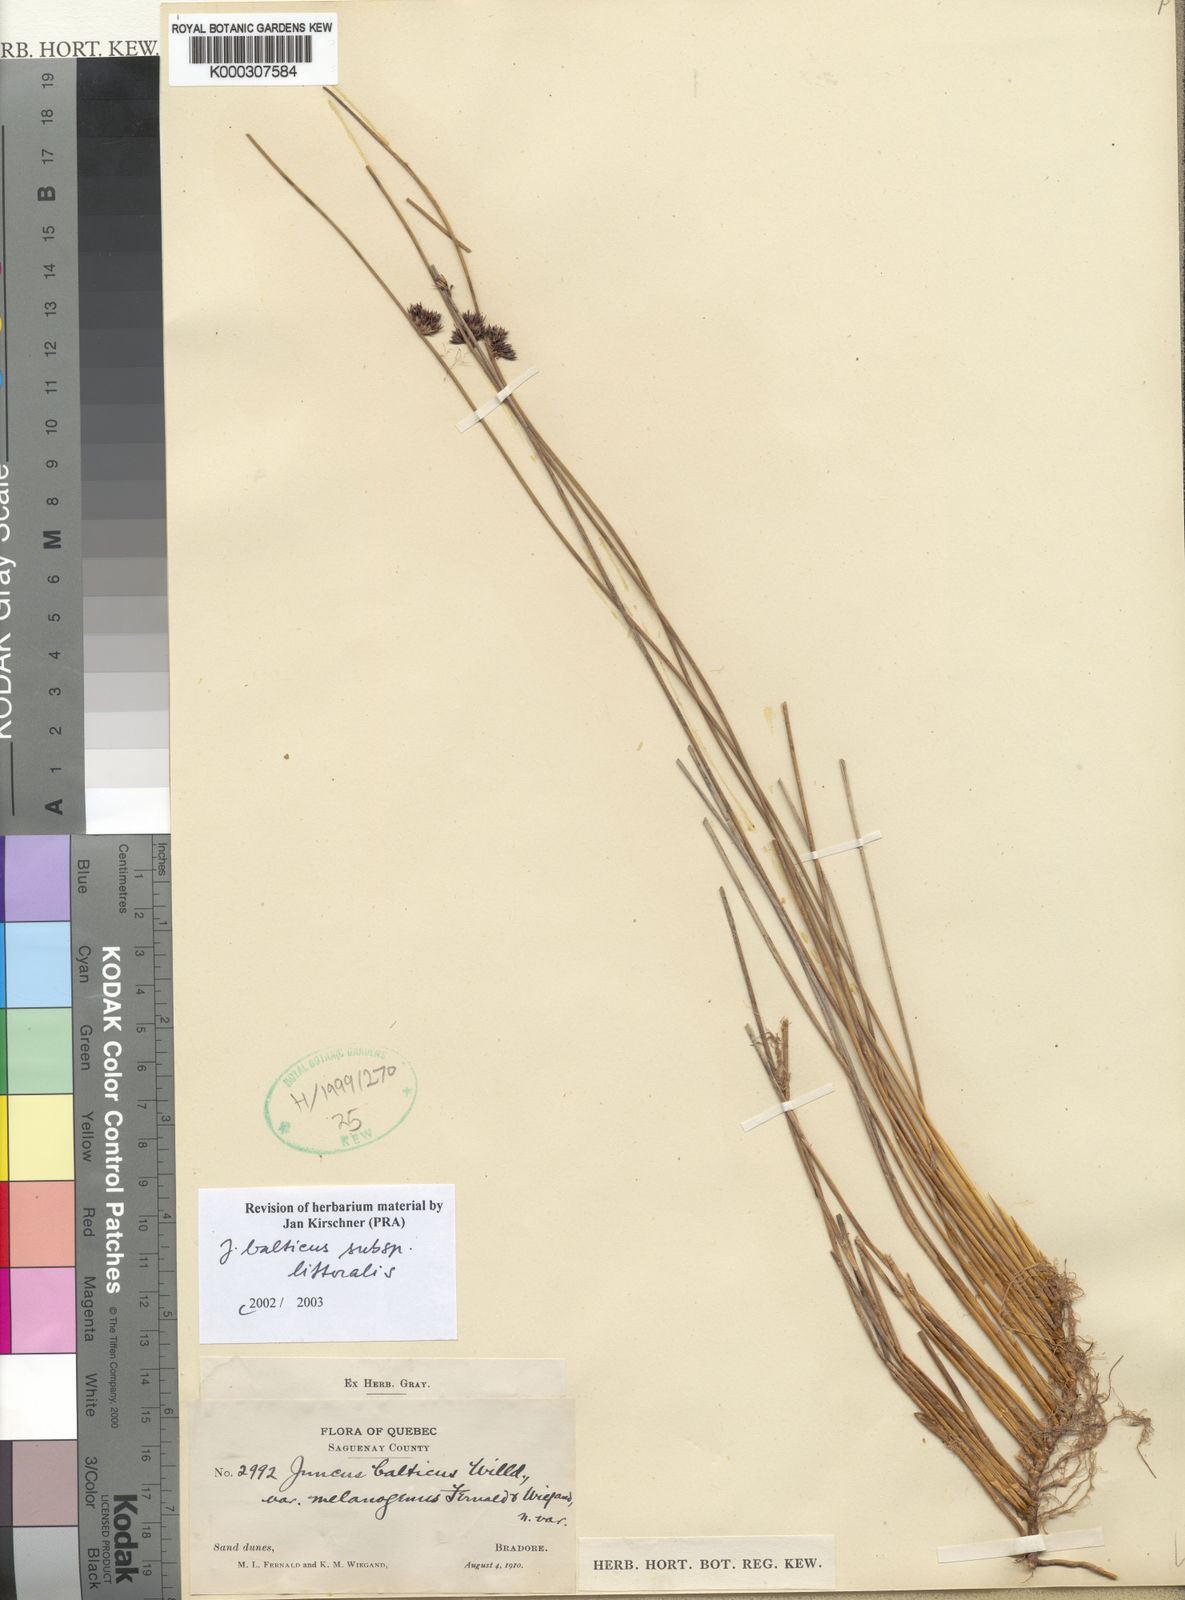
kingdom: Plantae
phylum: Tracheophyta
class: Liliopsida
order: Poales
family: Juncaceae
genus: Juncus
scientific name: Juncus balticus
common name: Baltic rush
